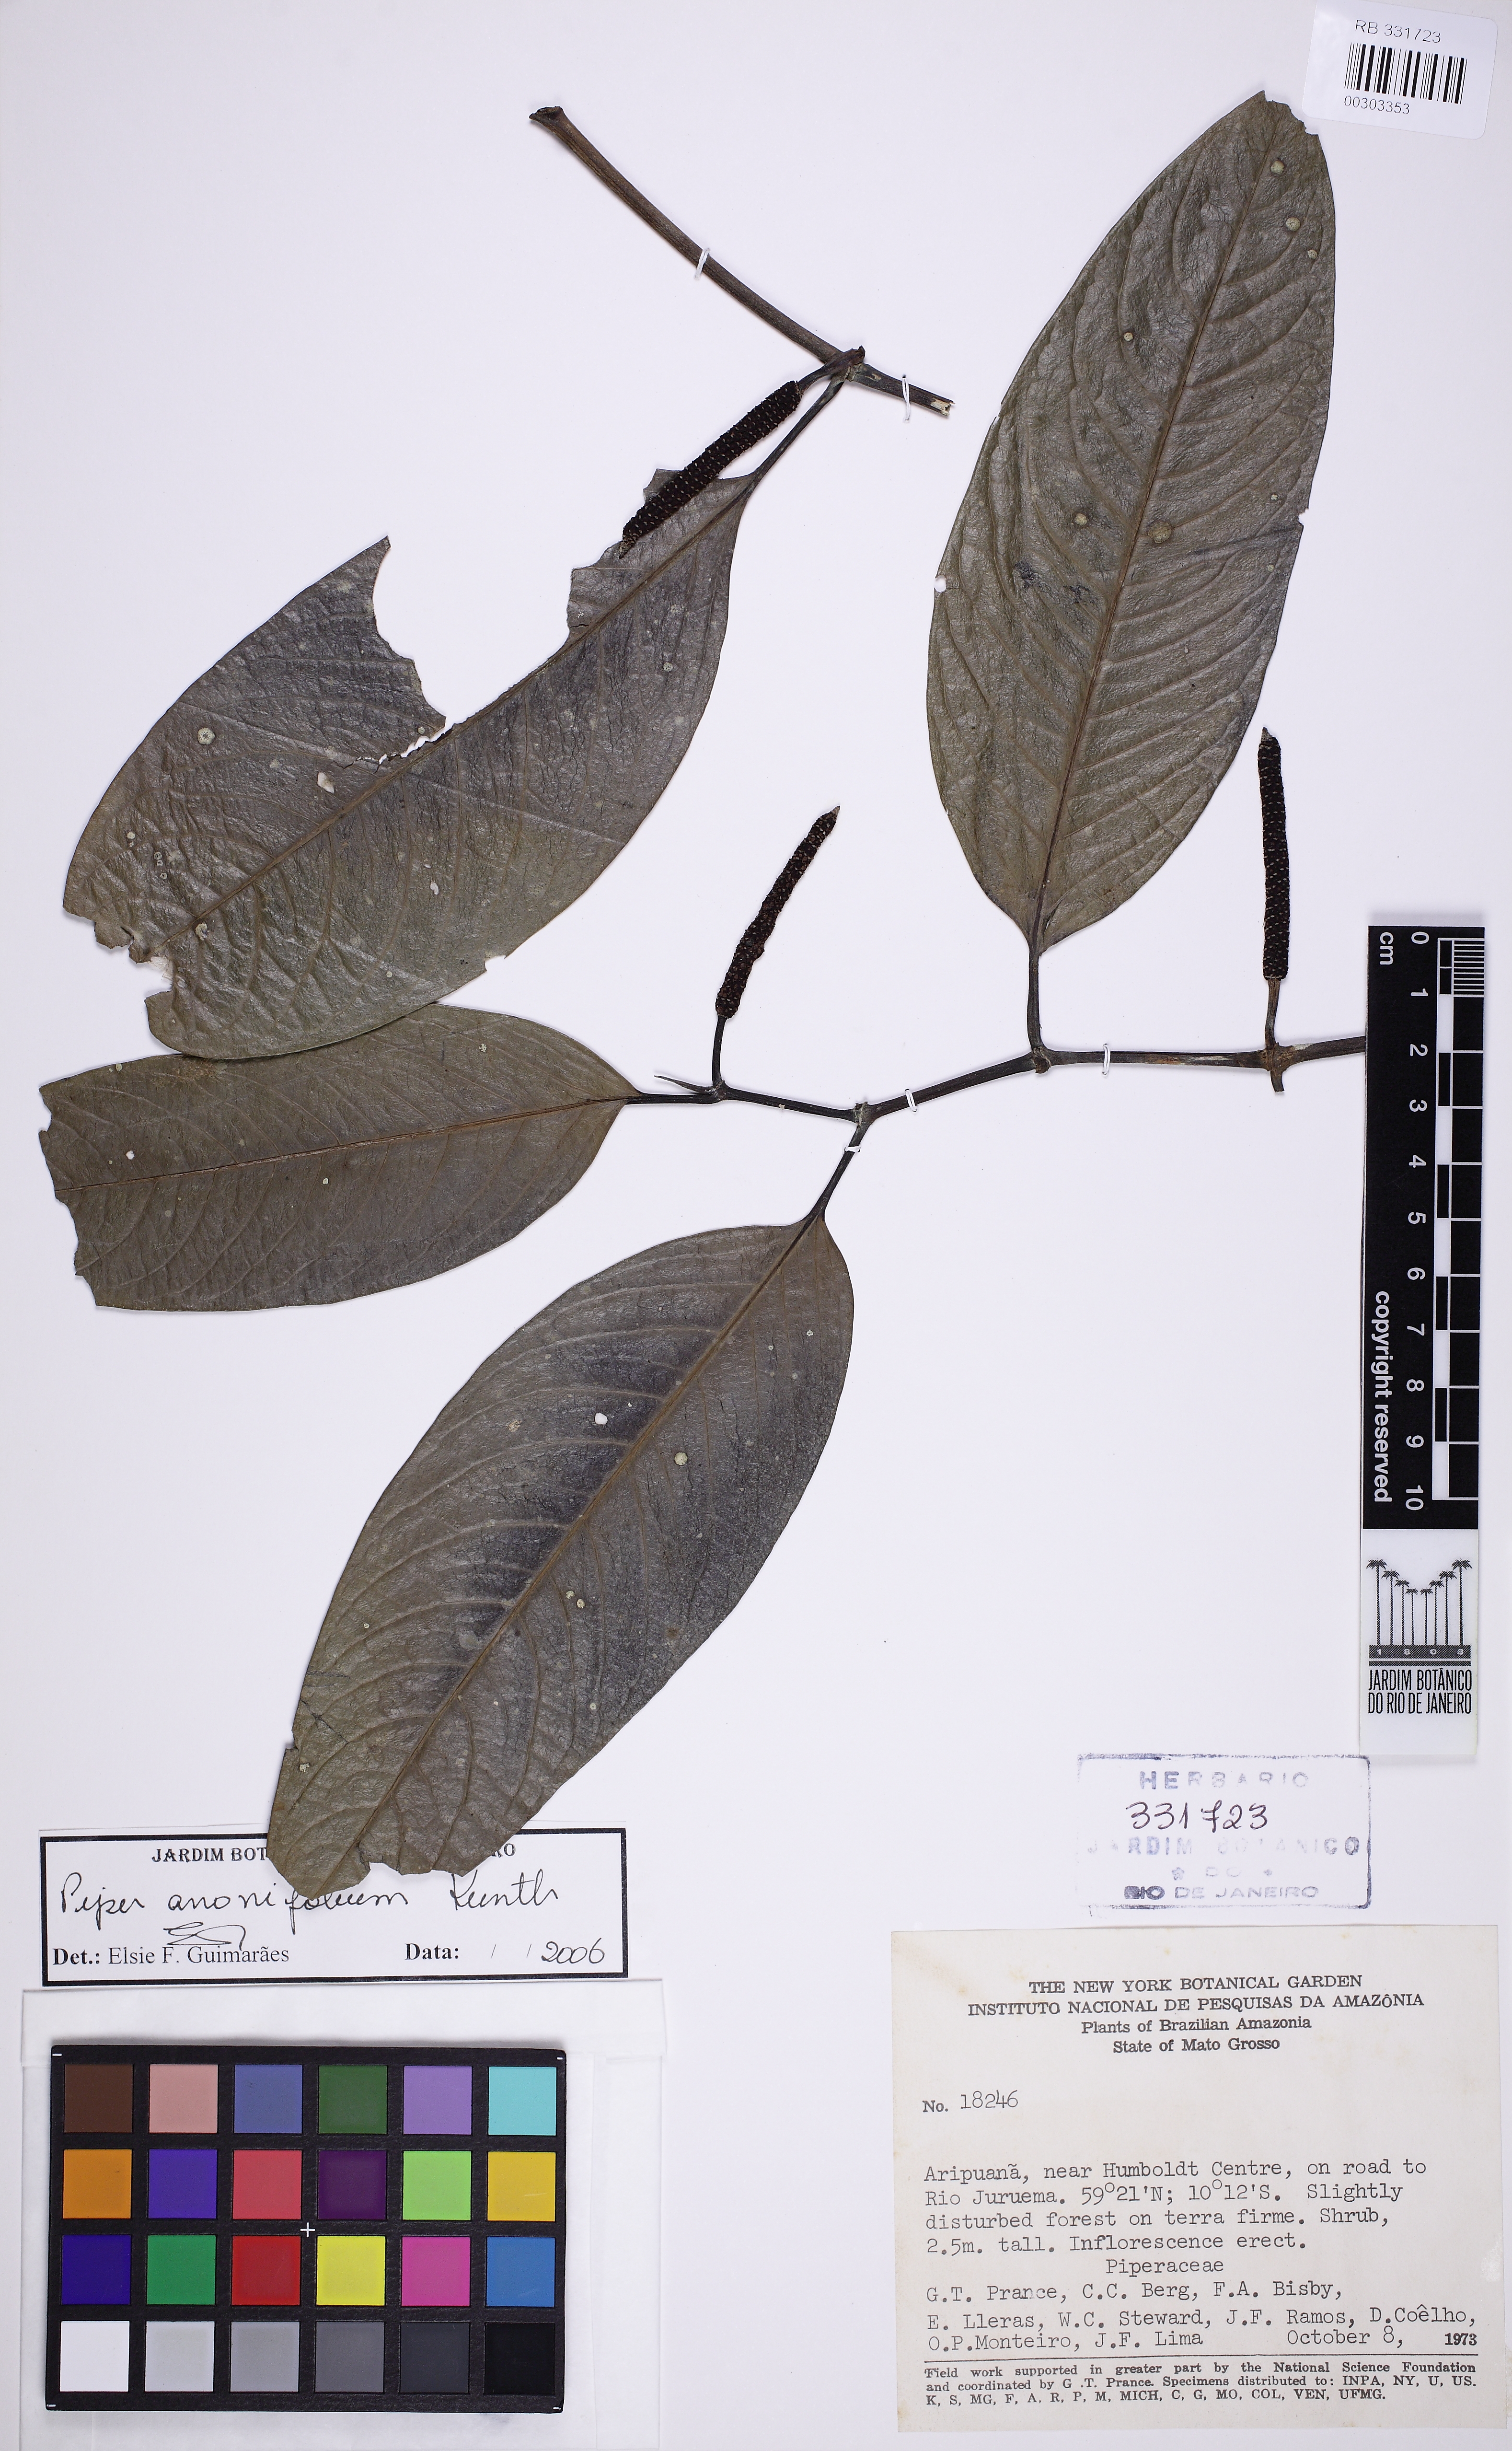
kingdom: Plantae
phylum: Tracheophyta
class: Magnoliopsida
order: Piperales
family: Piperaceae
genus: Piper
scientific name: Piper anonifolium
